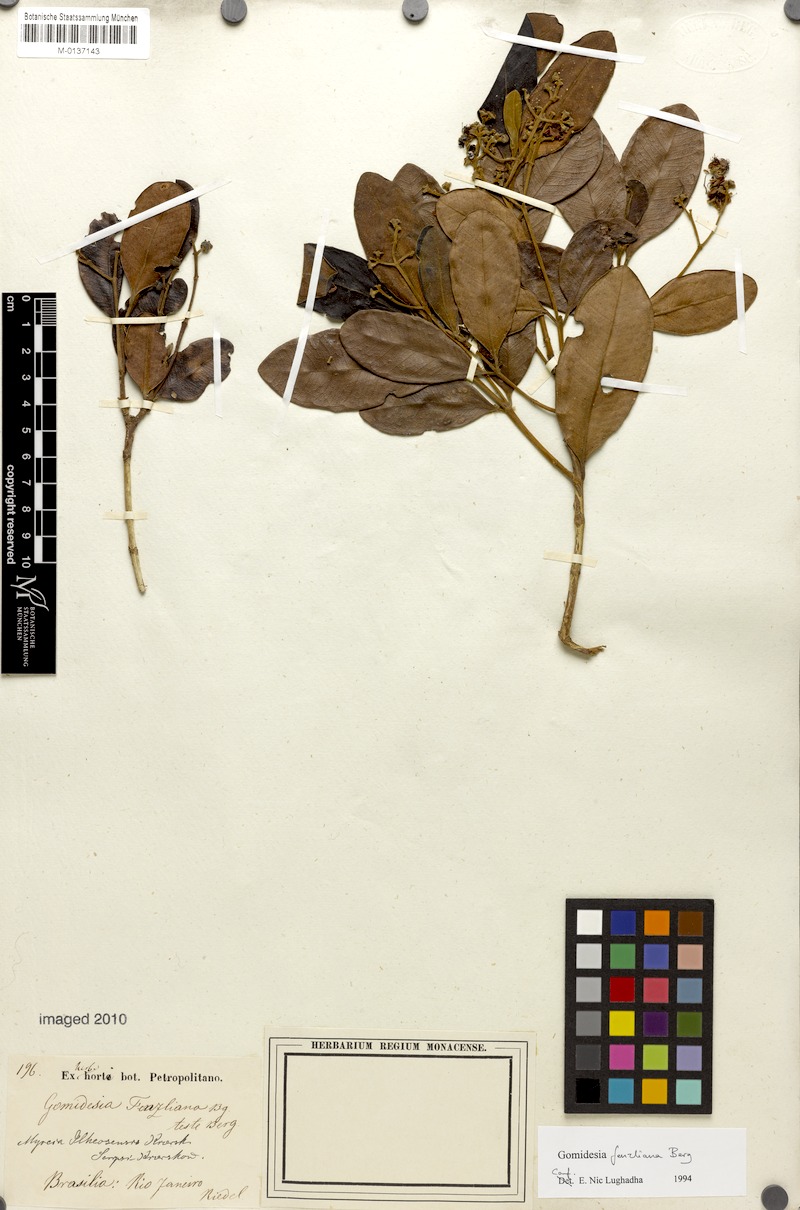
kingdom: Plantae
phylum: Tracheophyta
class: Magnoliopsida
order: Myrtales
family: Myrtaceae
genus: Myrcia
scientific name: Myrcia ilheosensis
